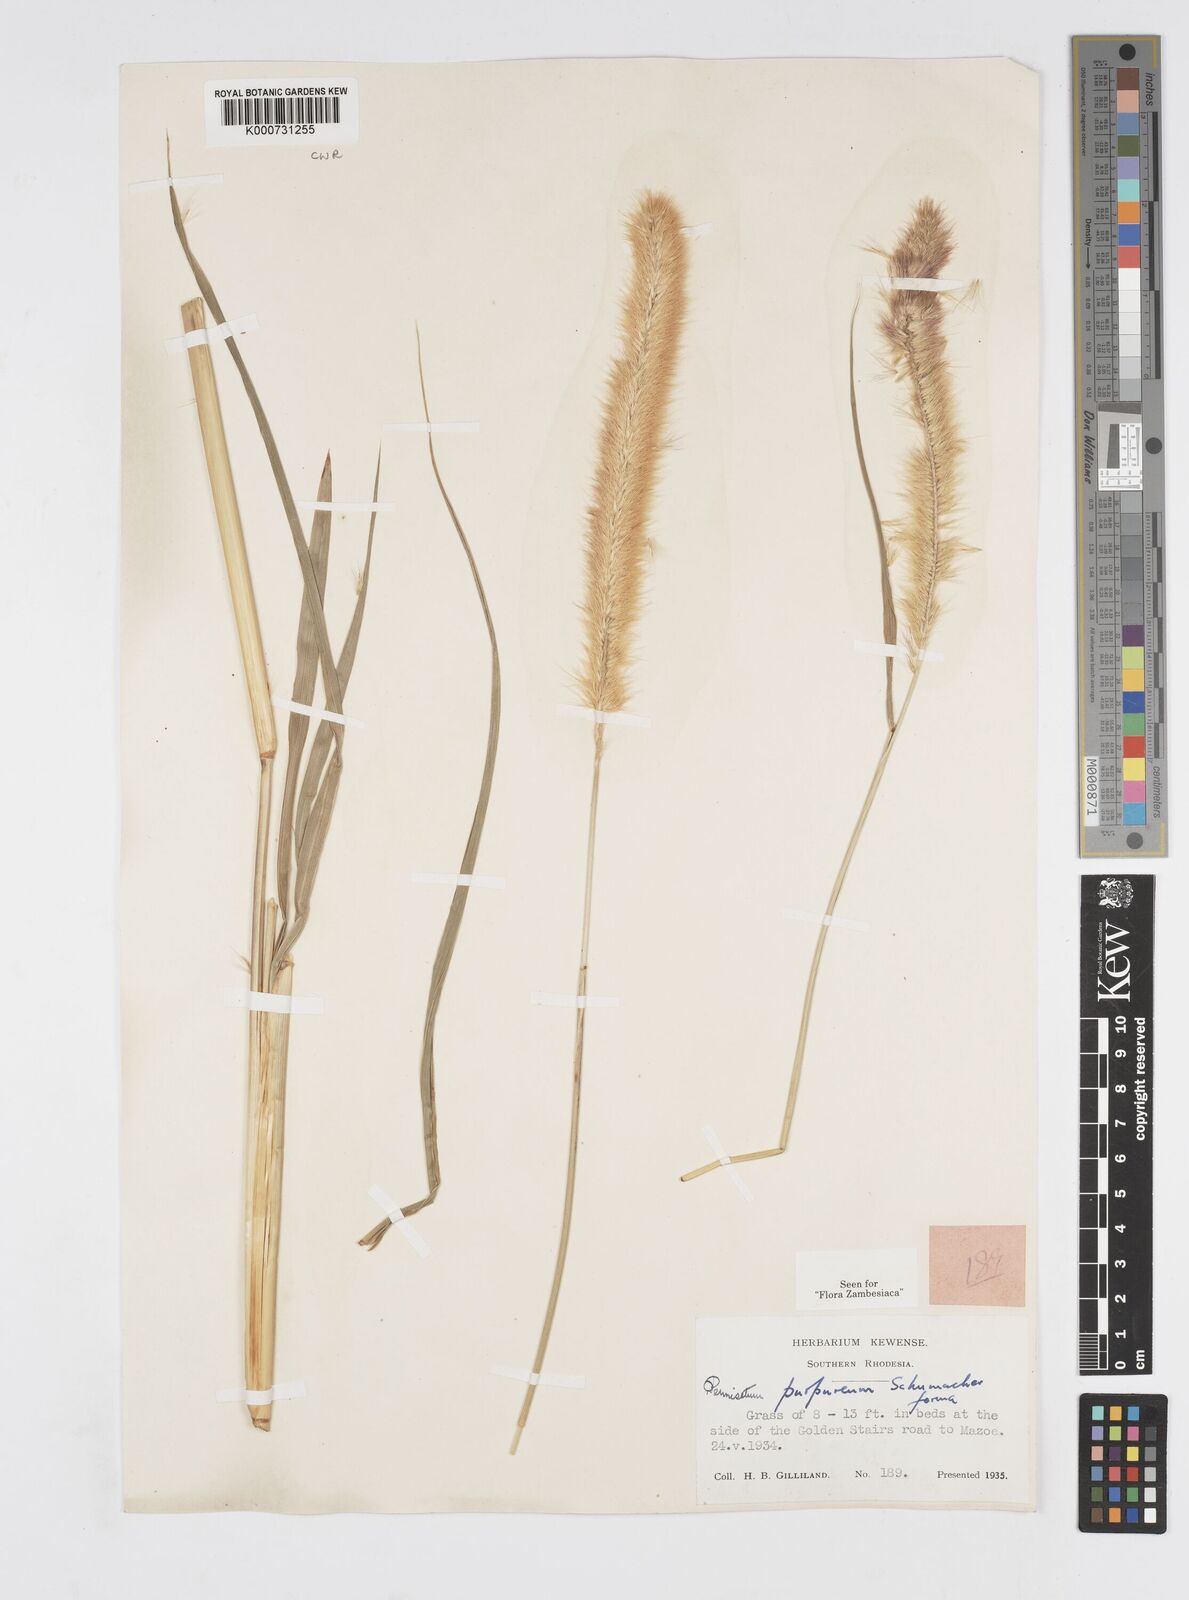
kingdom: Plantae
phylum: Tracheophyta
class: Liliopsida
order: Poales
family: Poaceae
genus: Cenchrus
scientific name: Cenchrus purpureus
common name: Elephant grass
